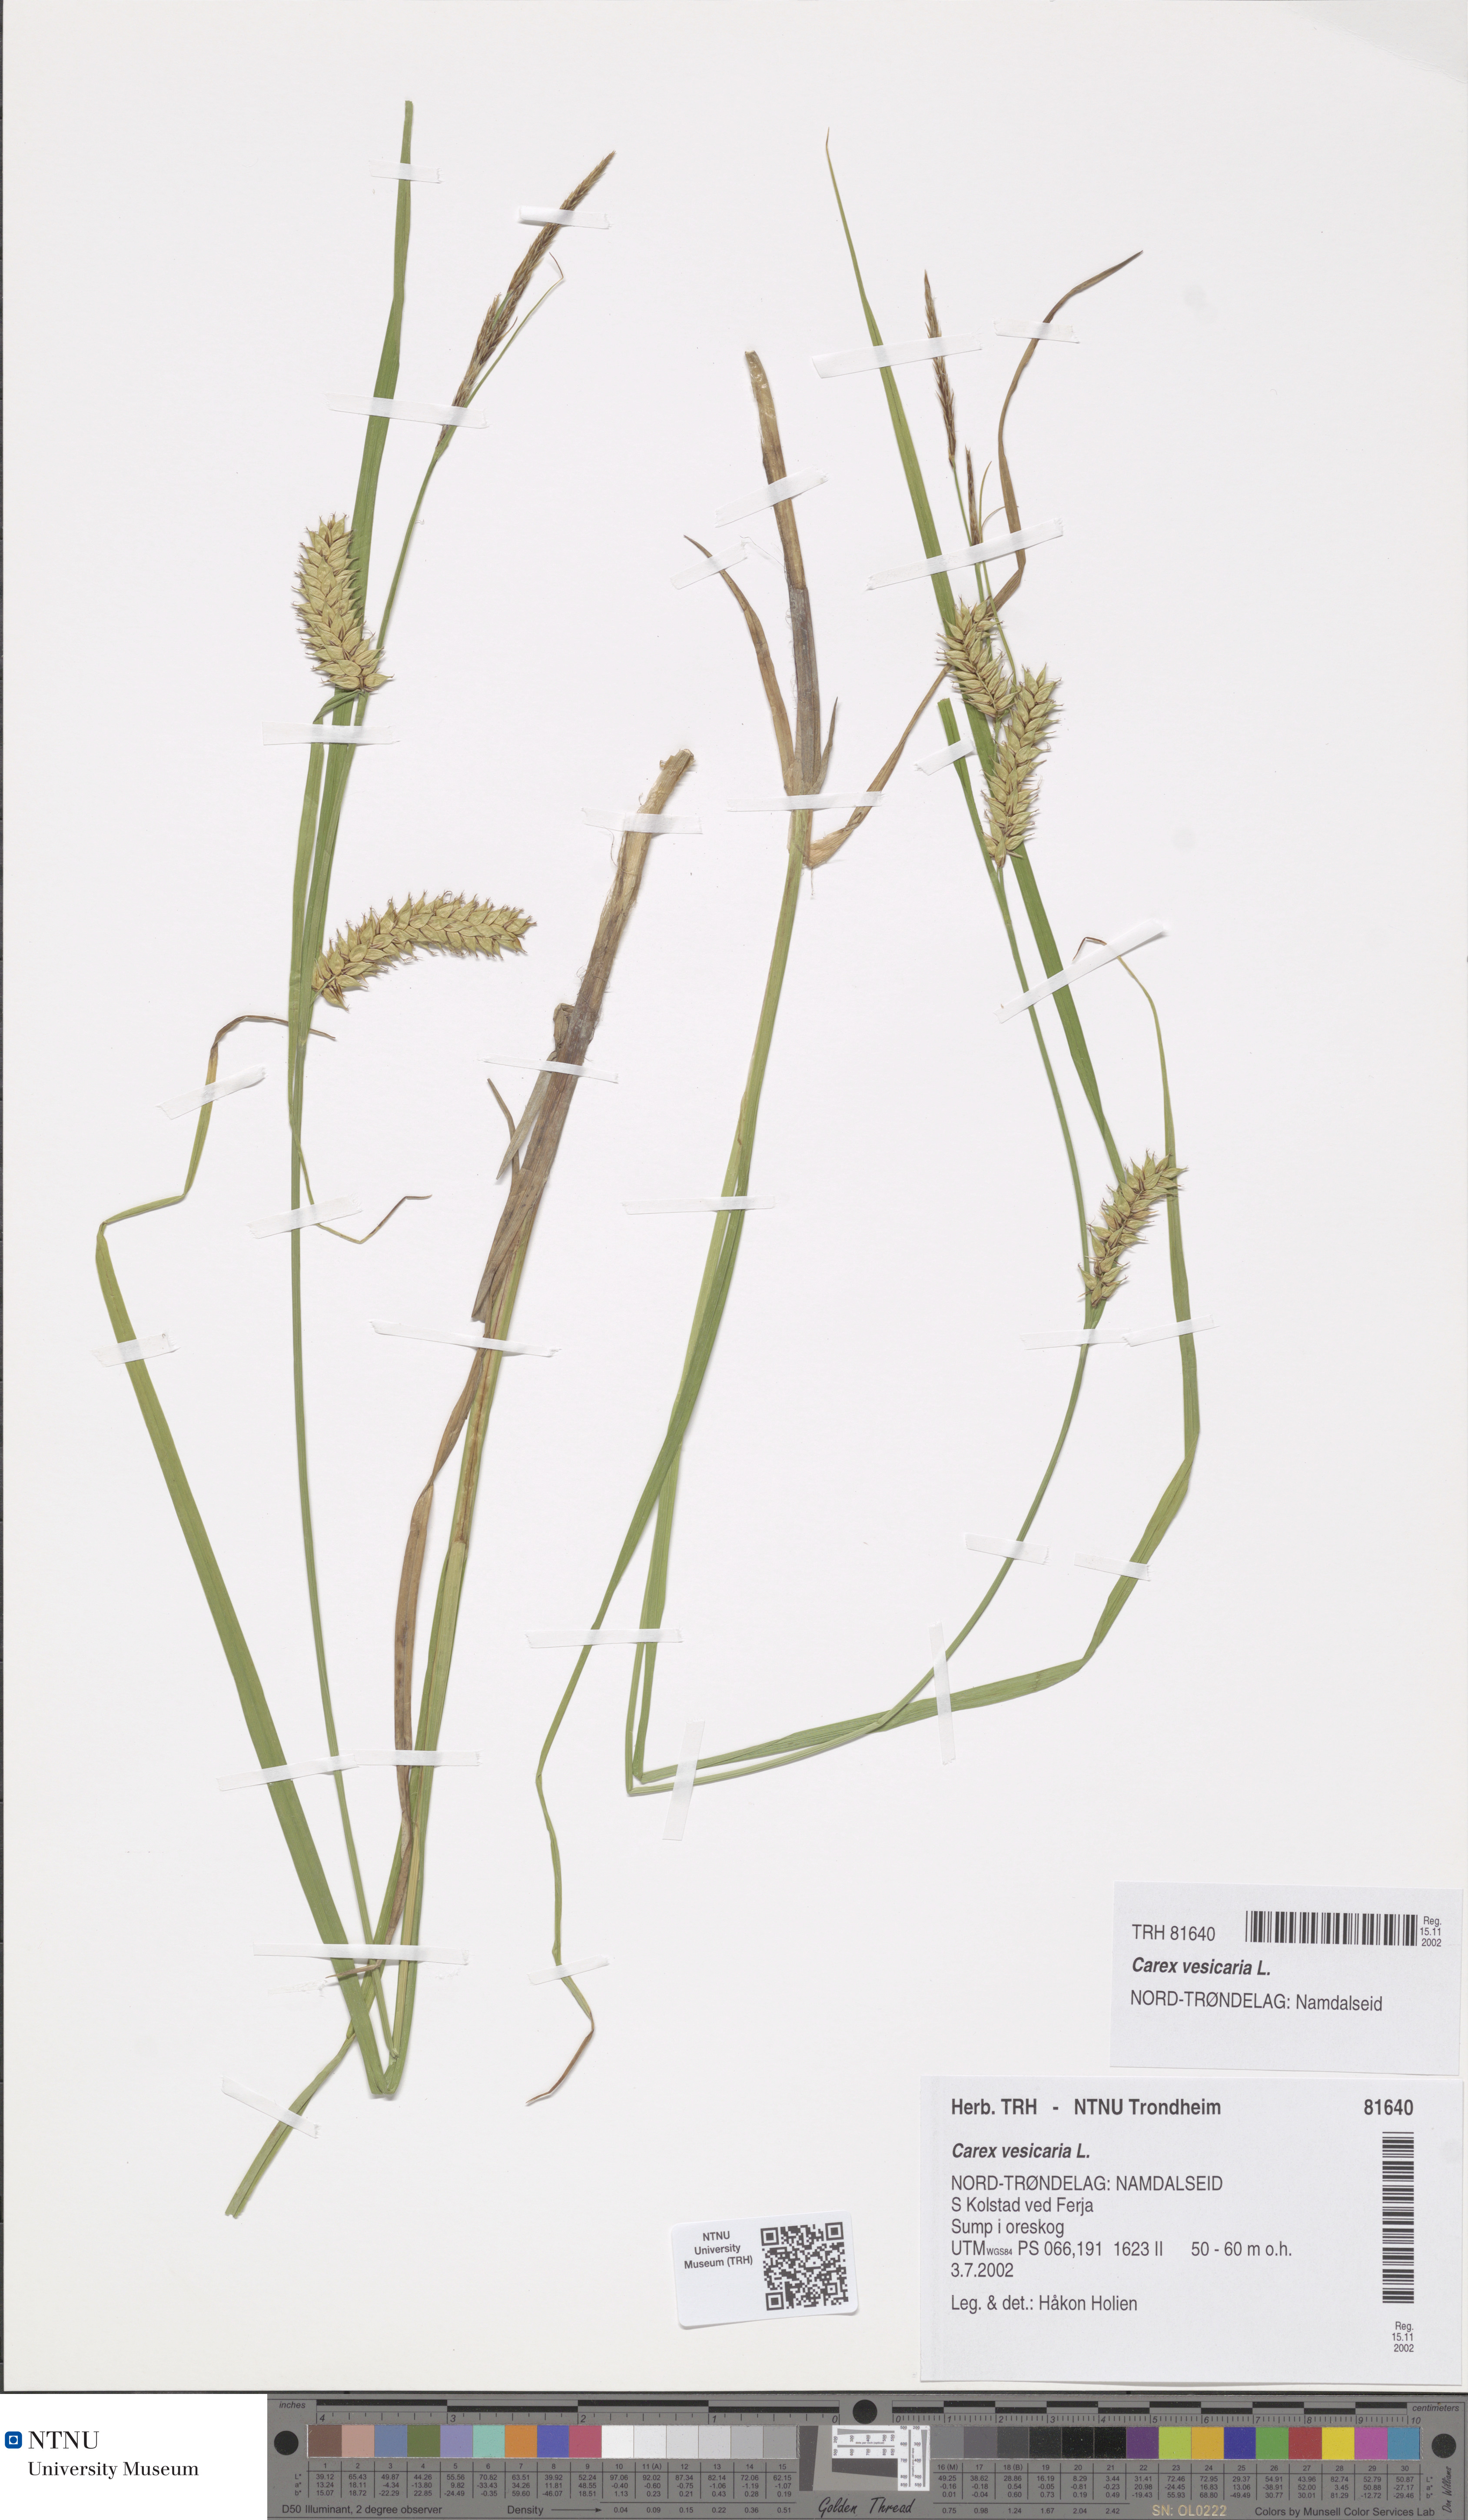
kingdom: Plantae
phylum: Tracheophyta
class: Liliopsida
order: Poales
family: Cyperaceae
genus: Carex
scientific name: Carex vesicaria
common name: Bladder-sedge
